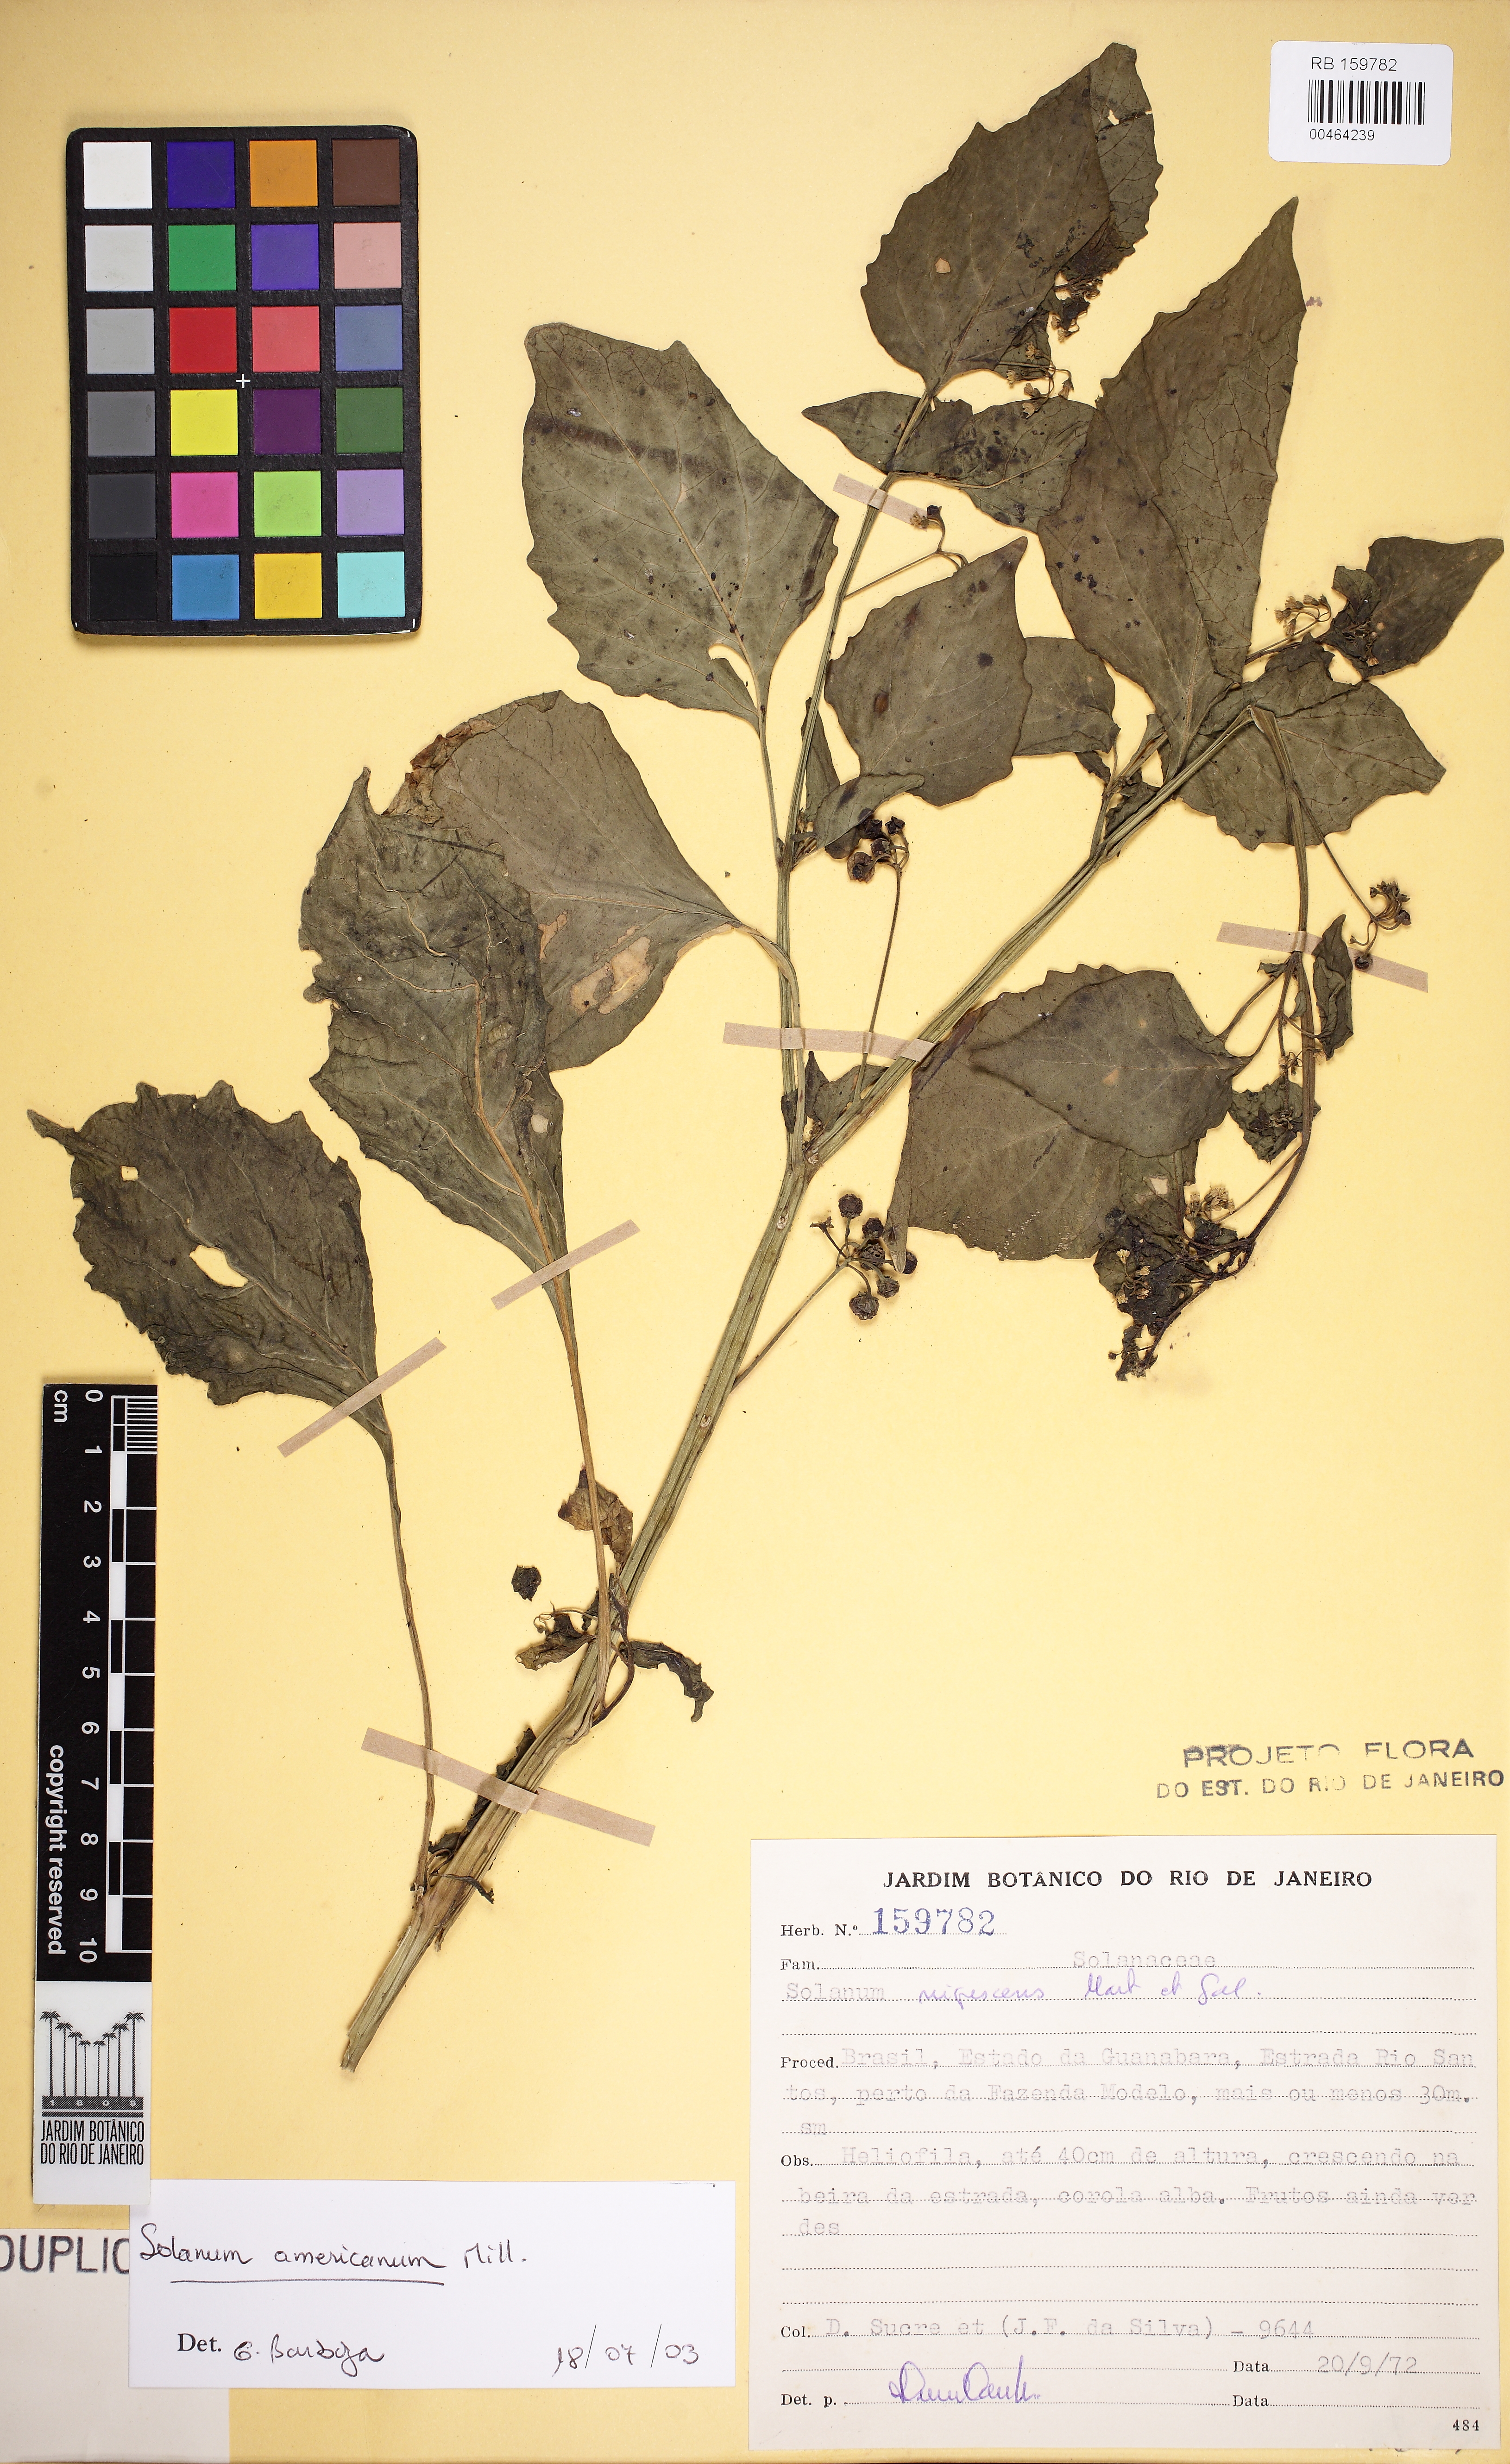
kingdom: Plantae
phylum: Tracheophyta
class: Magnoliopsida
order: Solanales
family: Solanaceae
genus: Solanum
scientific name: Solanum americanum
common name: American black nightshade
